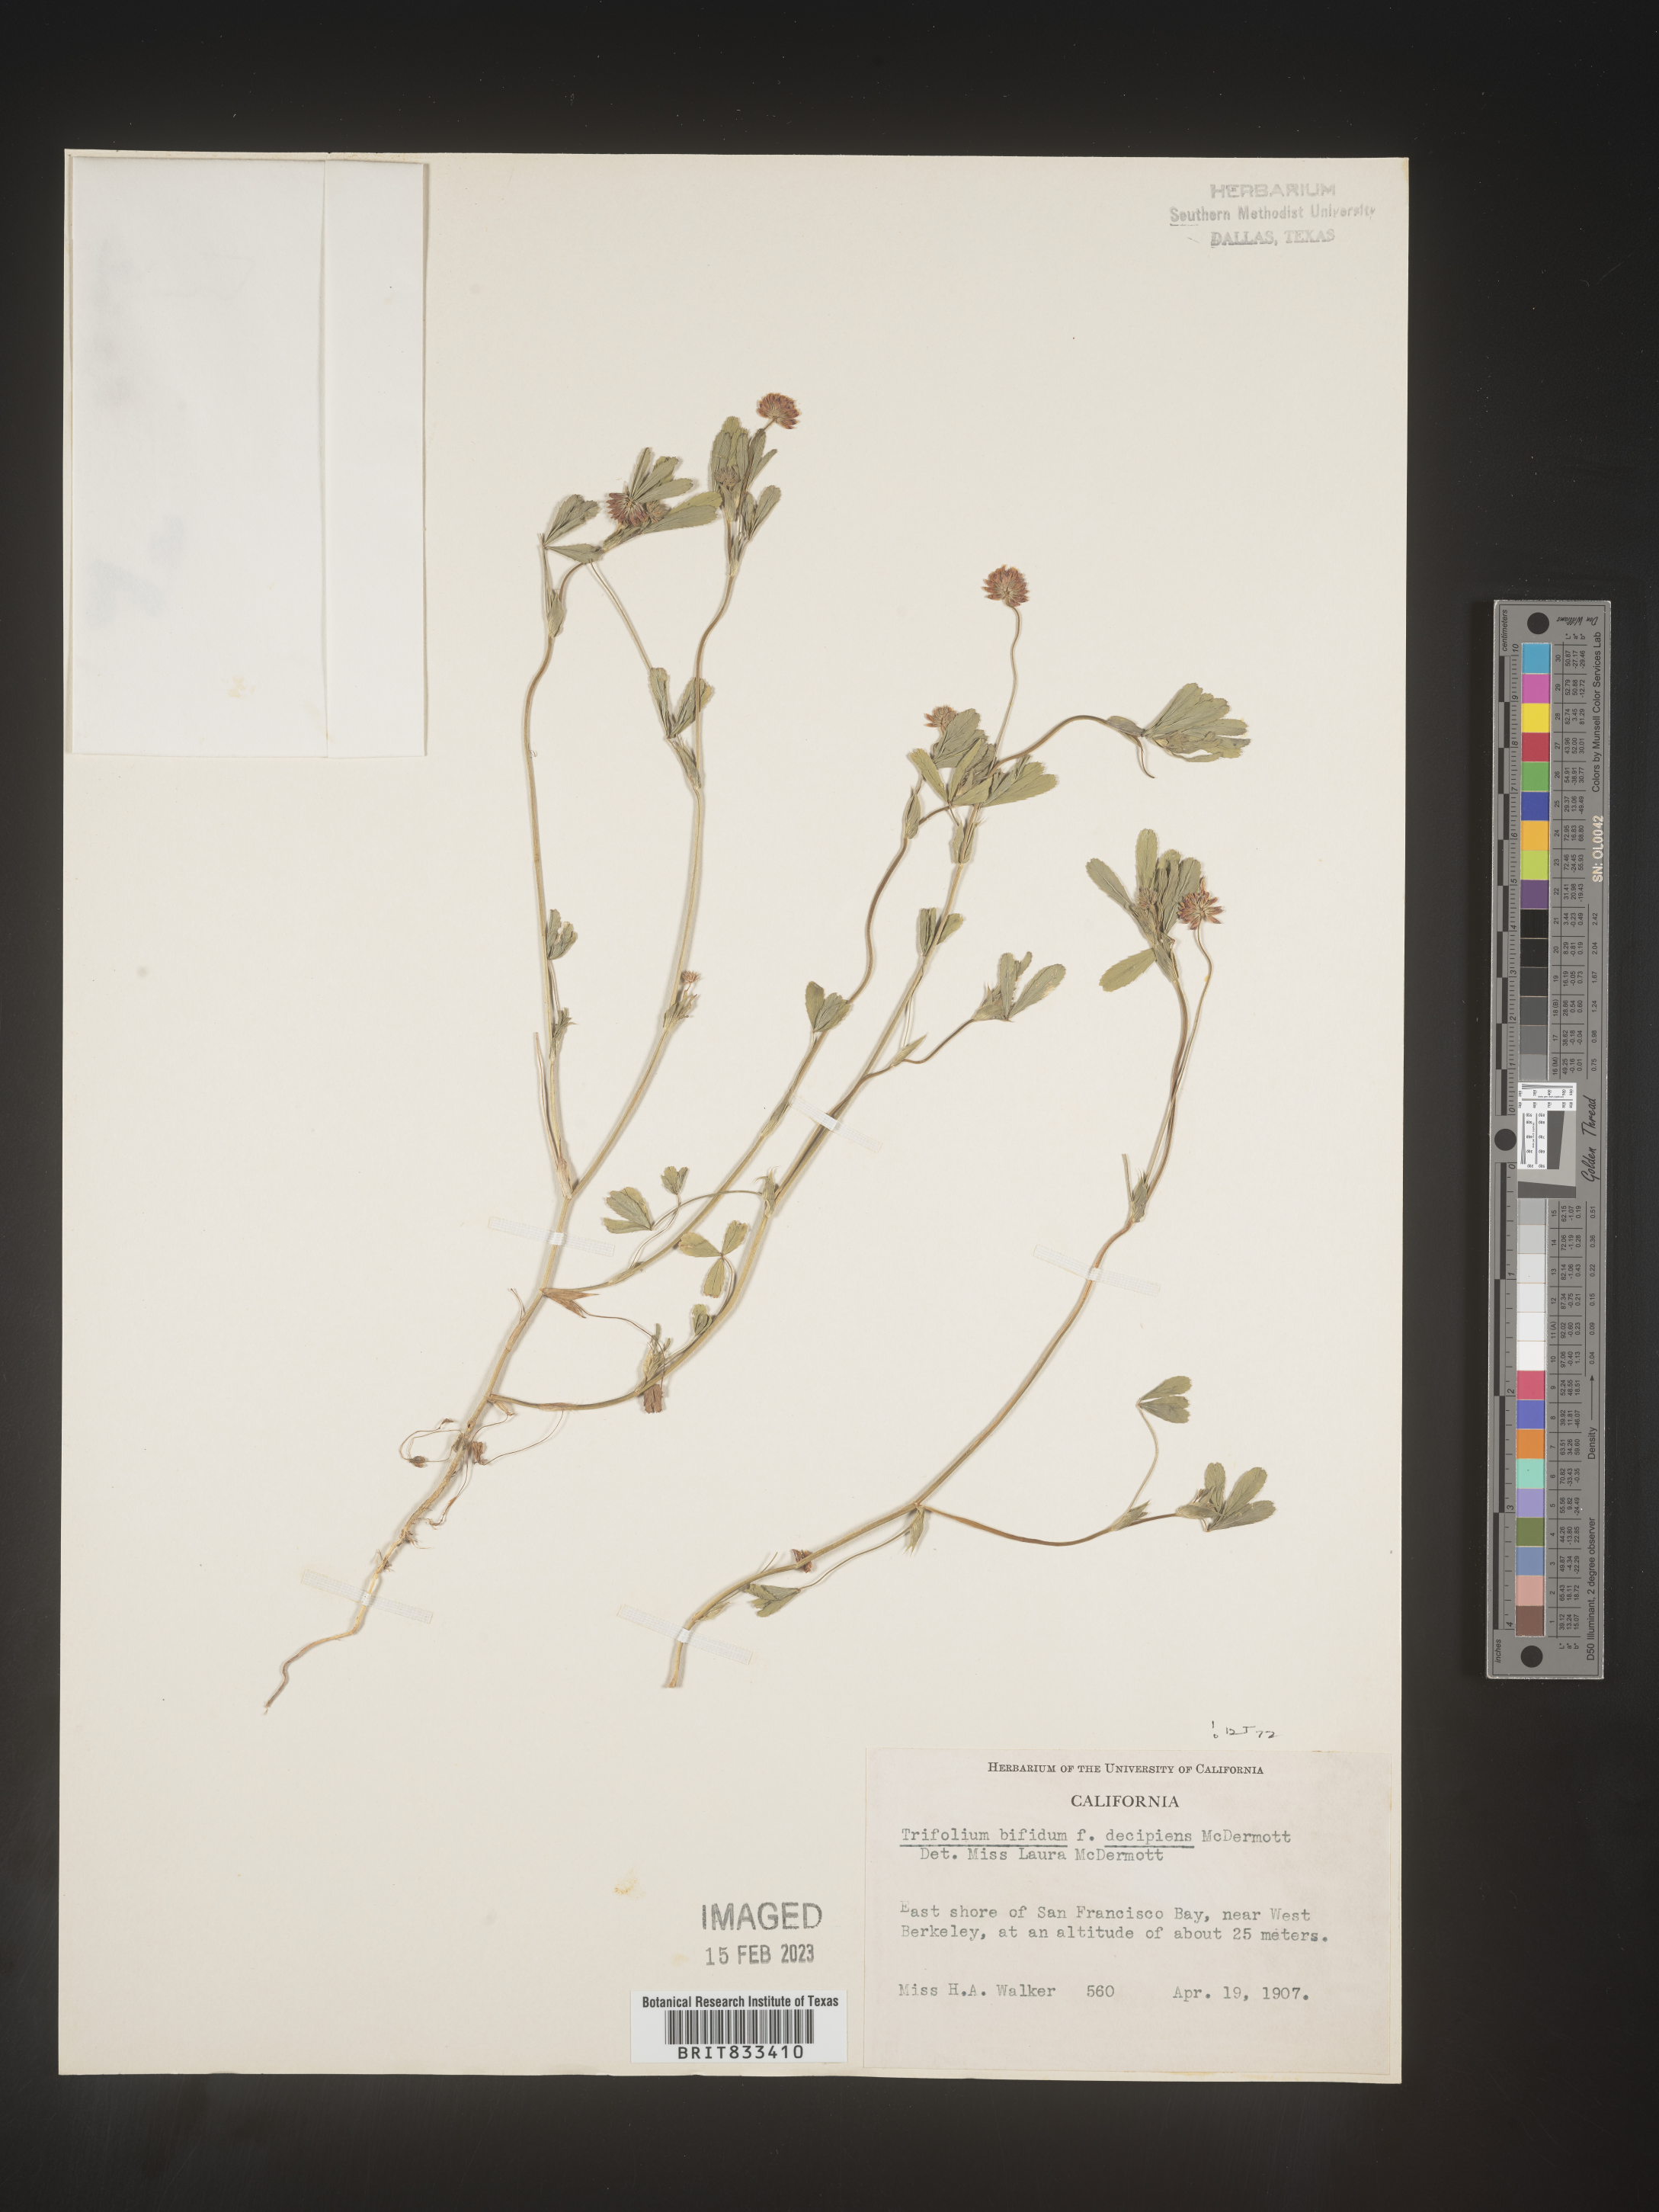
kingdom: Plantae
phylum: Tracheophyta
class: Magnoliopsida
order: Fabales
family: Fabaceae
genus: Trifolium
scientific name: Trifolium
